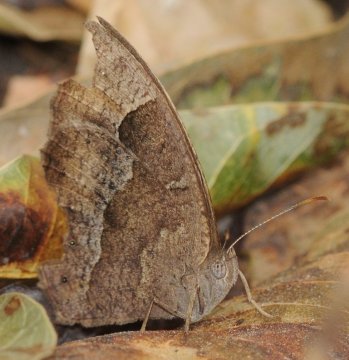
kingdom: Animalia
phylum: Arthropoda
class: Insecta
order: Lepidoptera
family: Nymphalidae
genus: Bicyclus
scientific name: Bicyclus cottrelli
